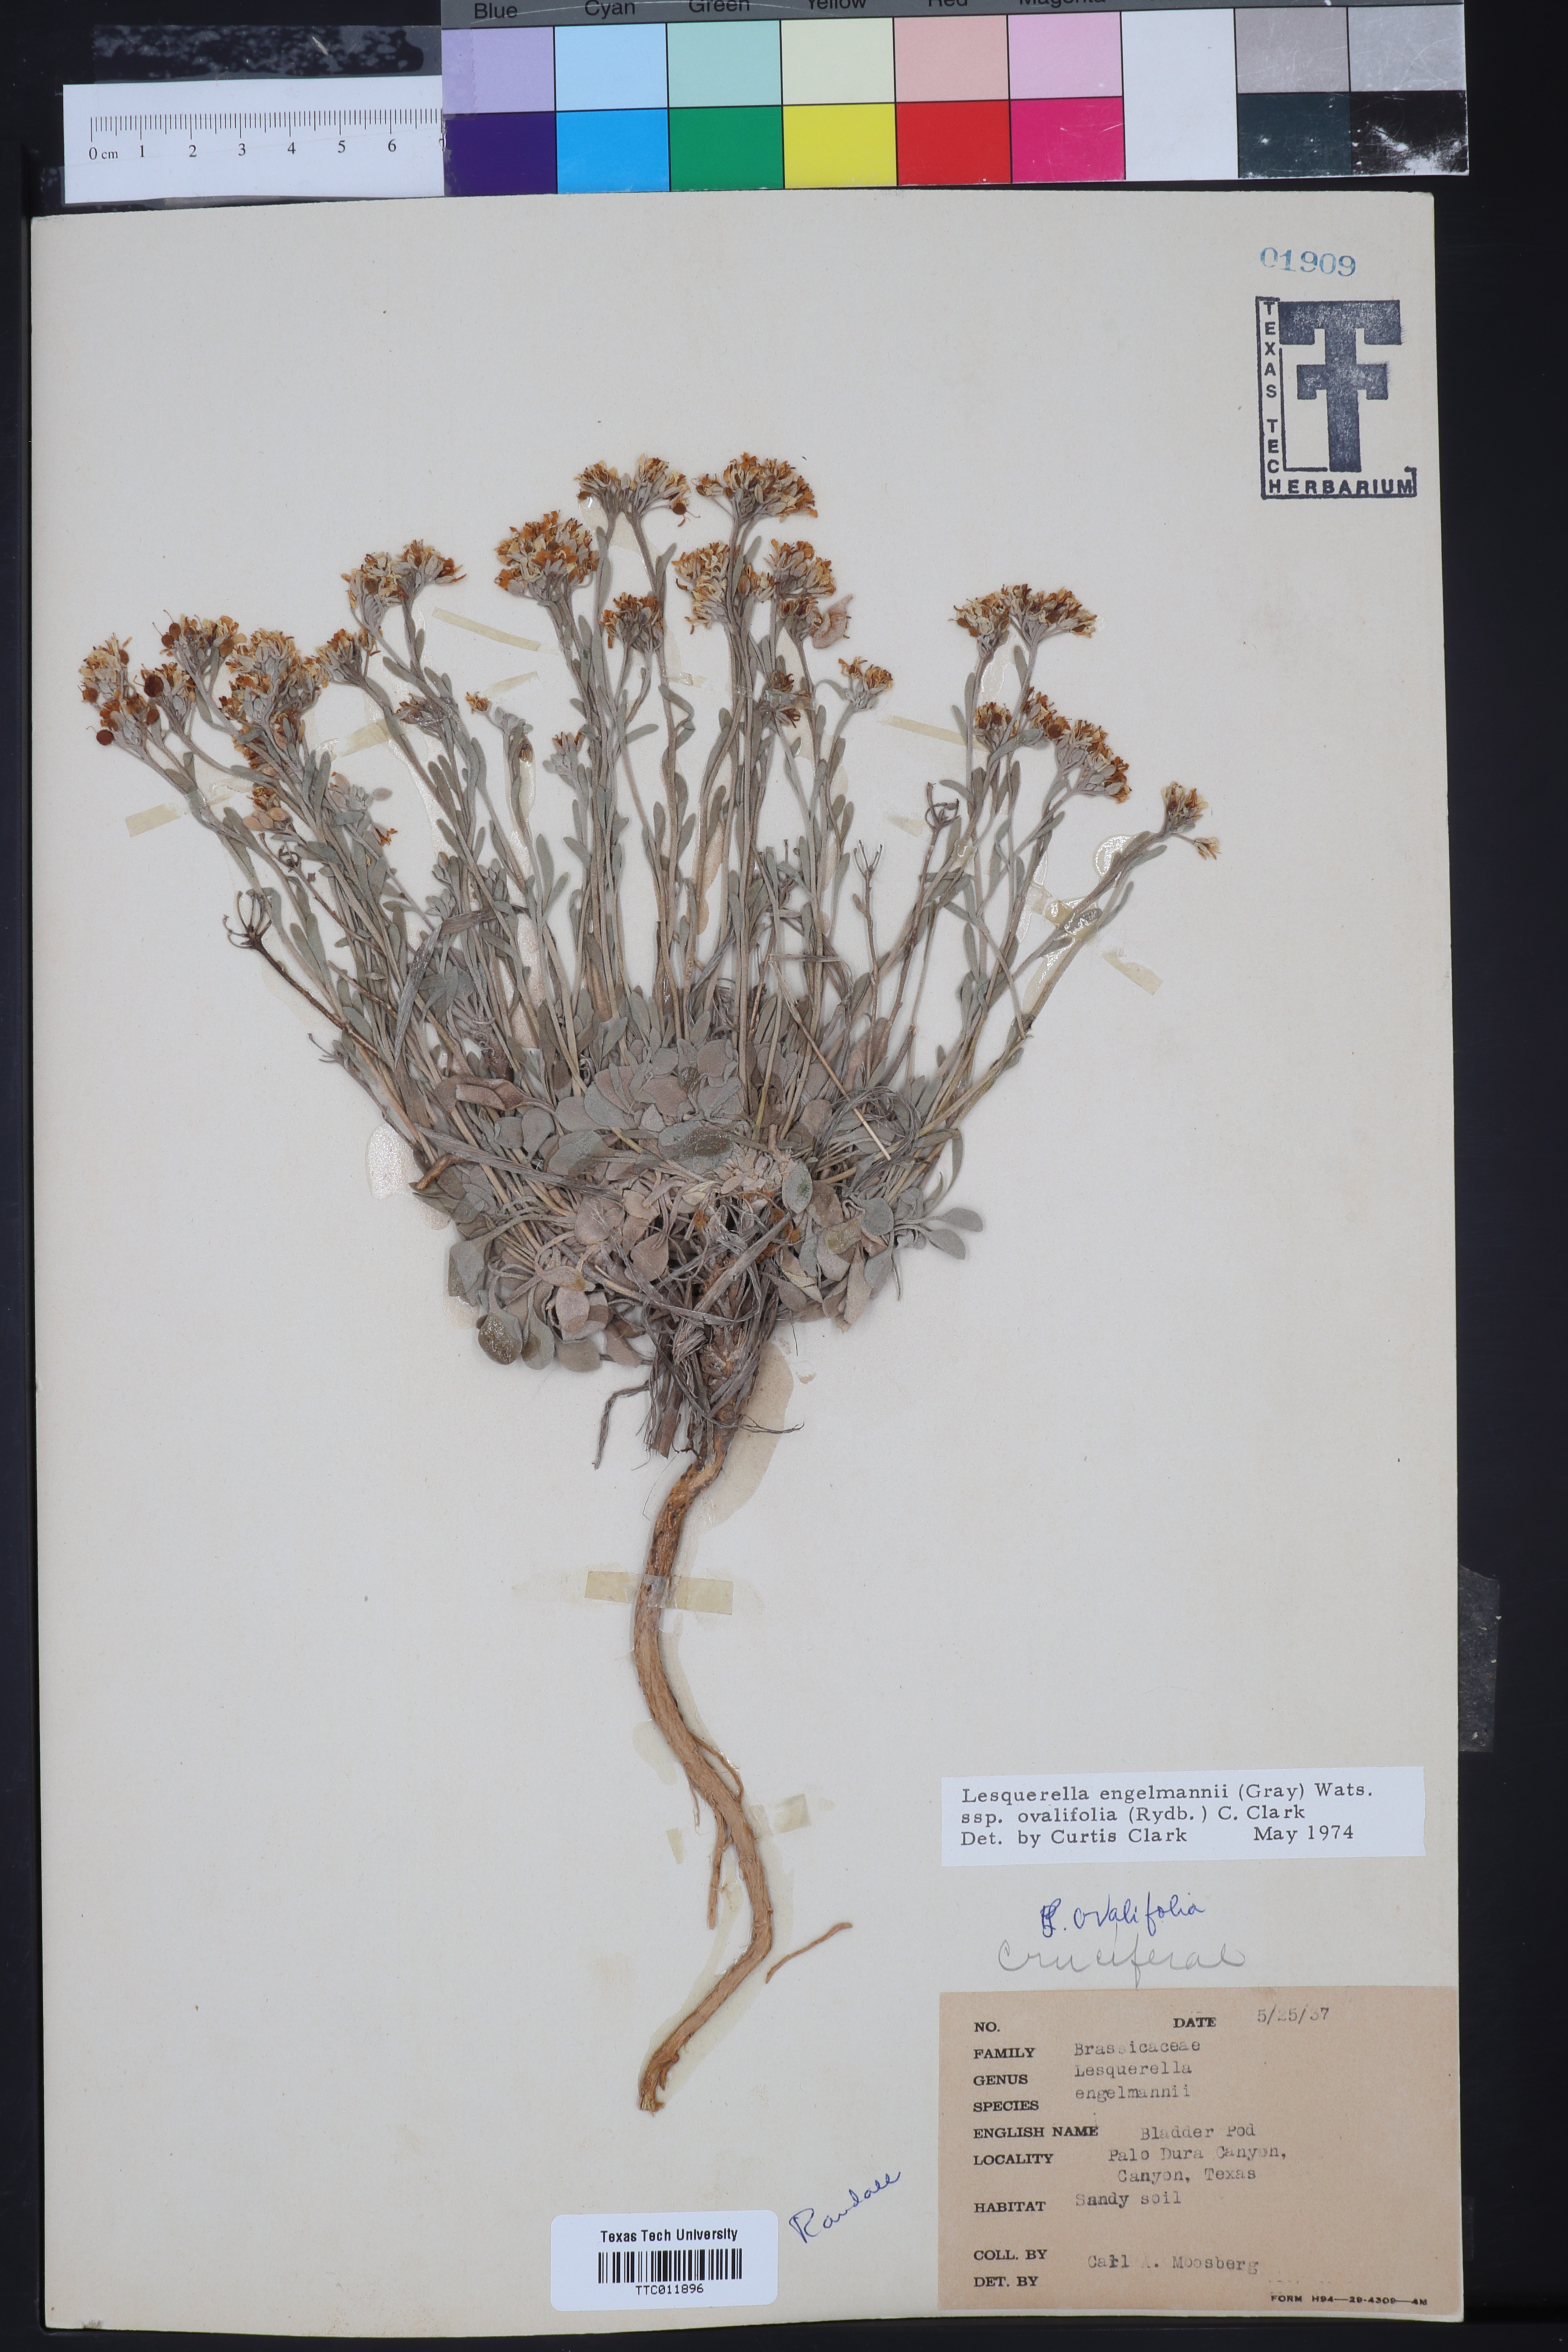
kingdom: Plantae
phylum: Tracheophyta
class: Magnoliopsida
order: Brassicales
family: Brassicaceae
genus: Physaria
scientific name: Physaria ovalifolia
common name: Round-leaf bladderpod
